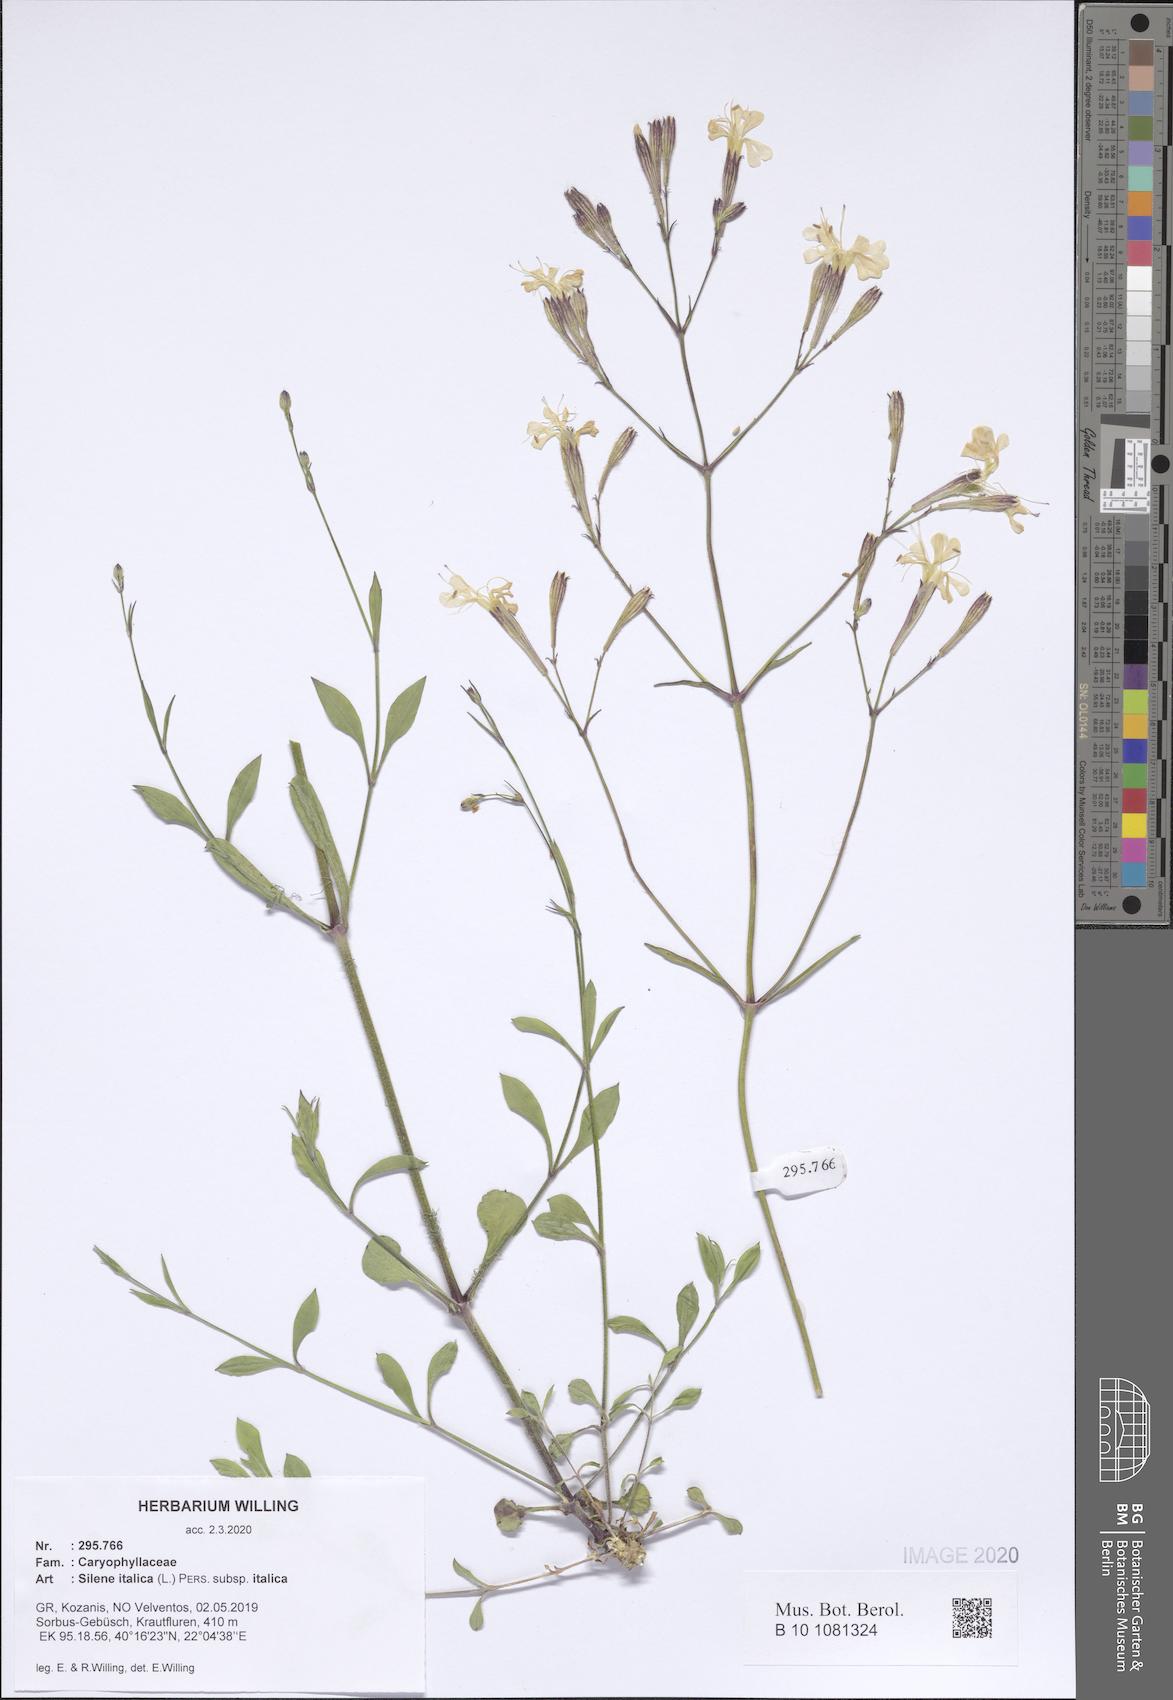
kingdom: Plantae
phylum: Tracheophyta
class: Magnoliopsida
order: Caryophyllales
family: Caryophyllaceae
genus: Silene
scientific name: Silene italica
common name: Italian catchfly
